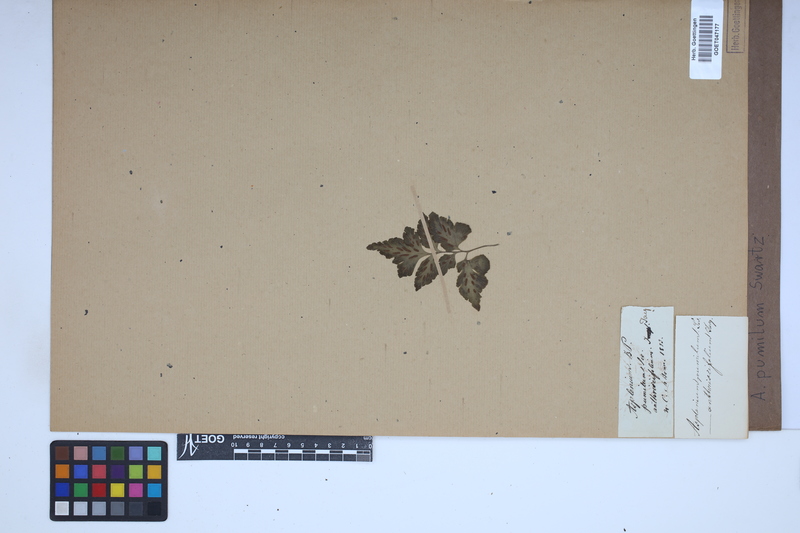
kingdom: Plantae
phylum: Tracheophyta
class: Polypodiopsida
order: Polypodiales
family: Aspleniaceae
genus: Asplenium
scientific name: Asplenium pumilum
